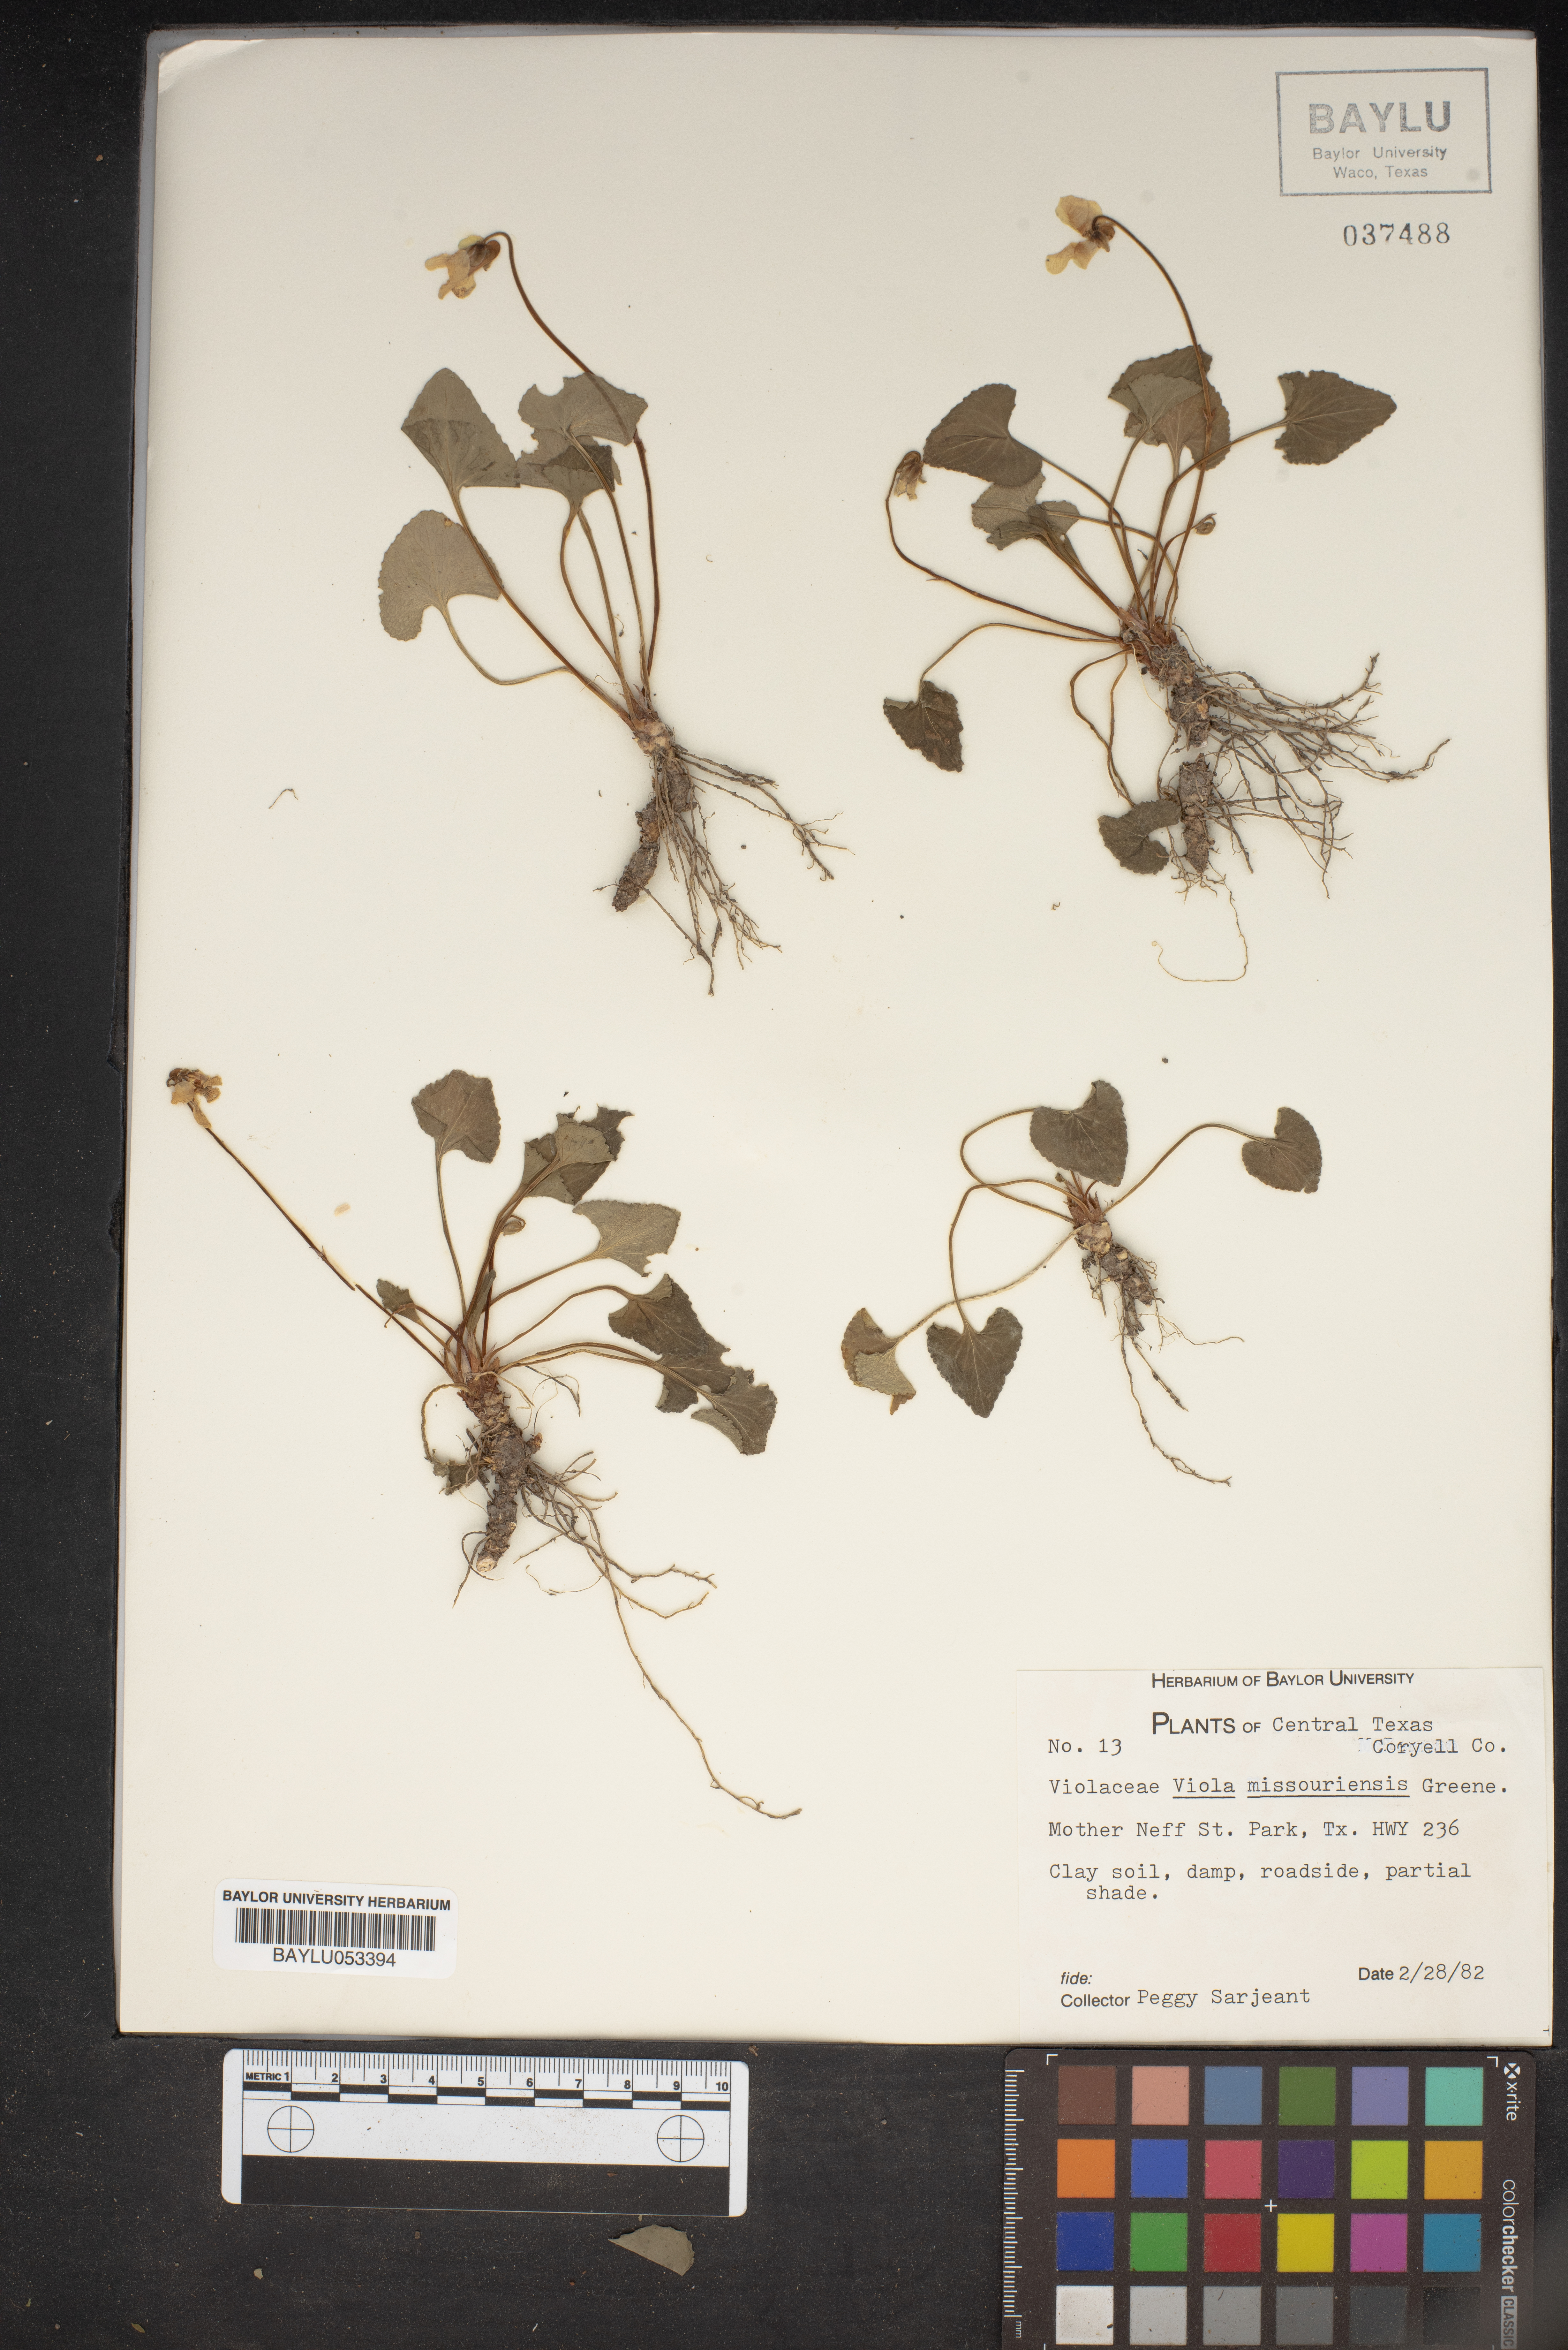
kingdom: Plantae
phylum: Tracheophyta
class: Magnoliopsida
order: Malpighiales
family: Violaceae
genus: Viola
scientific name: Viola missouriensis
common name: Missouri violet
